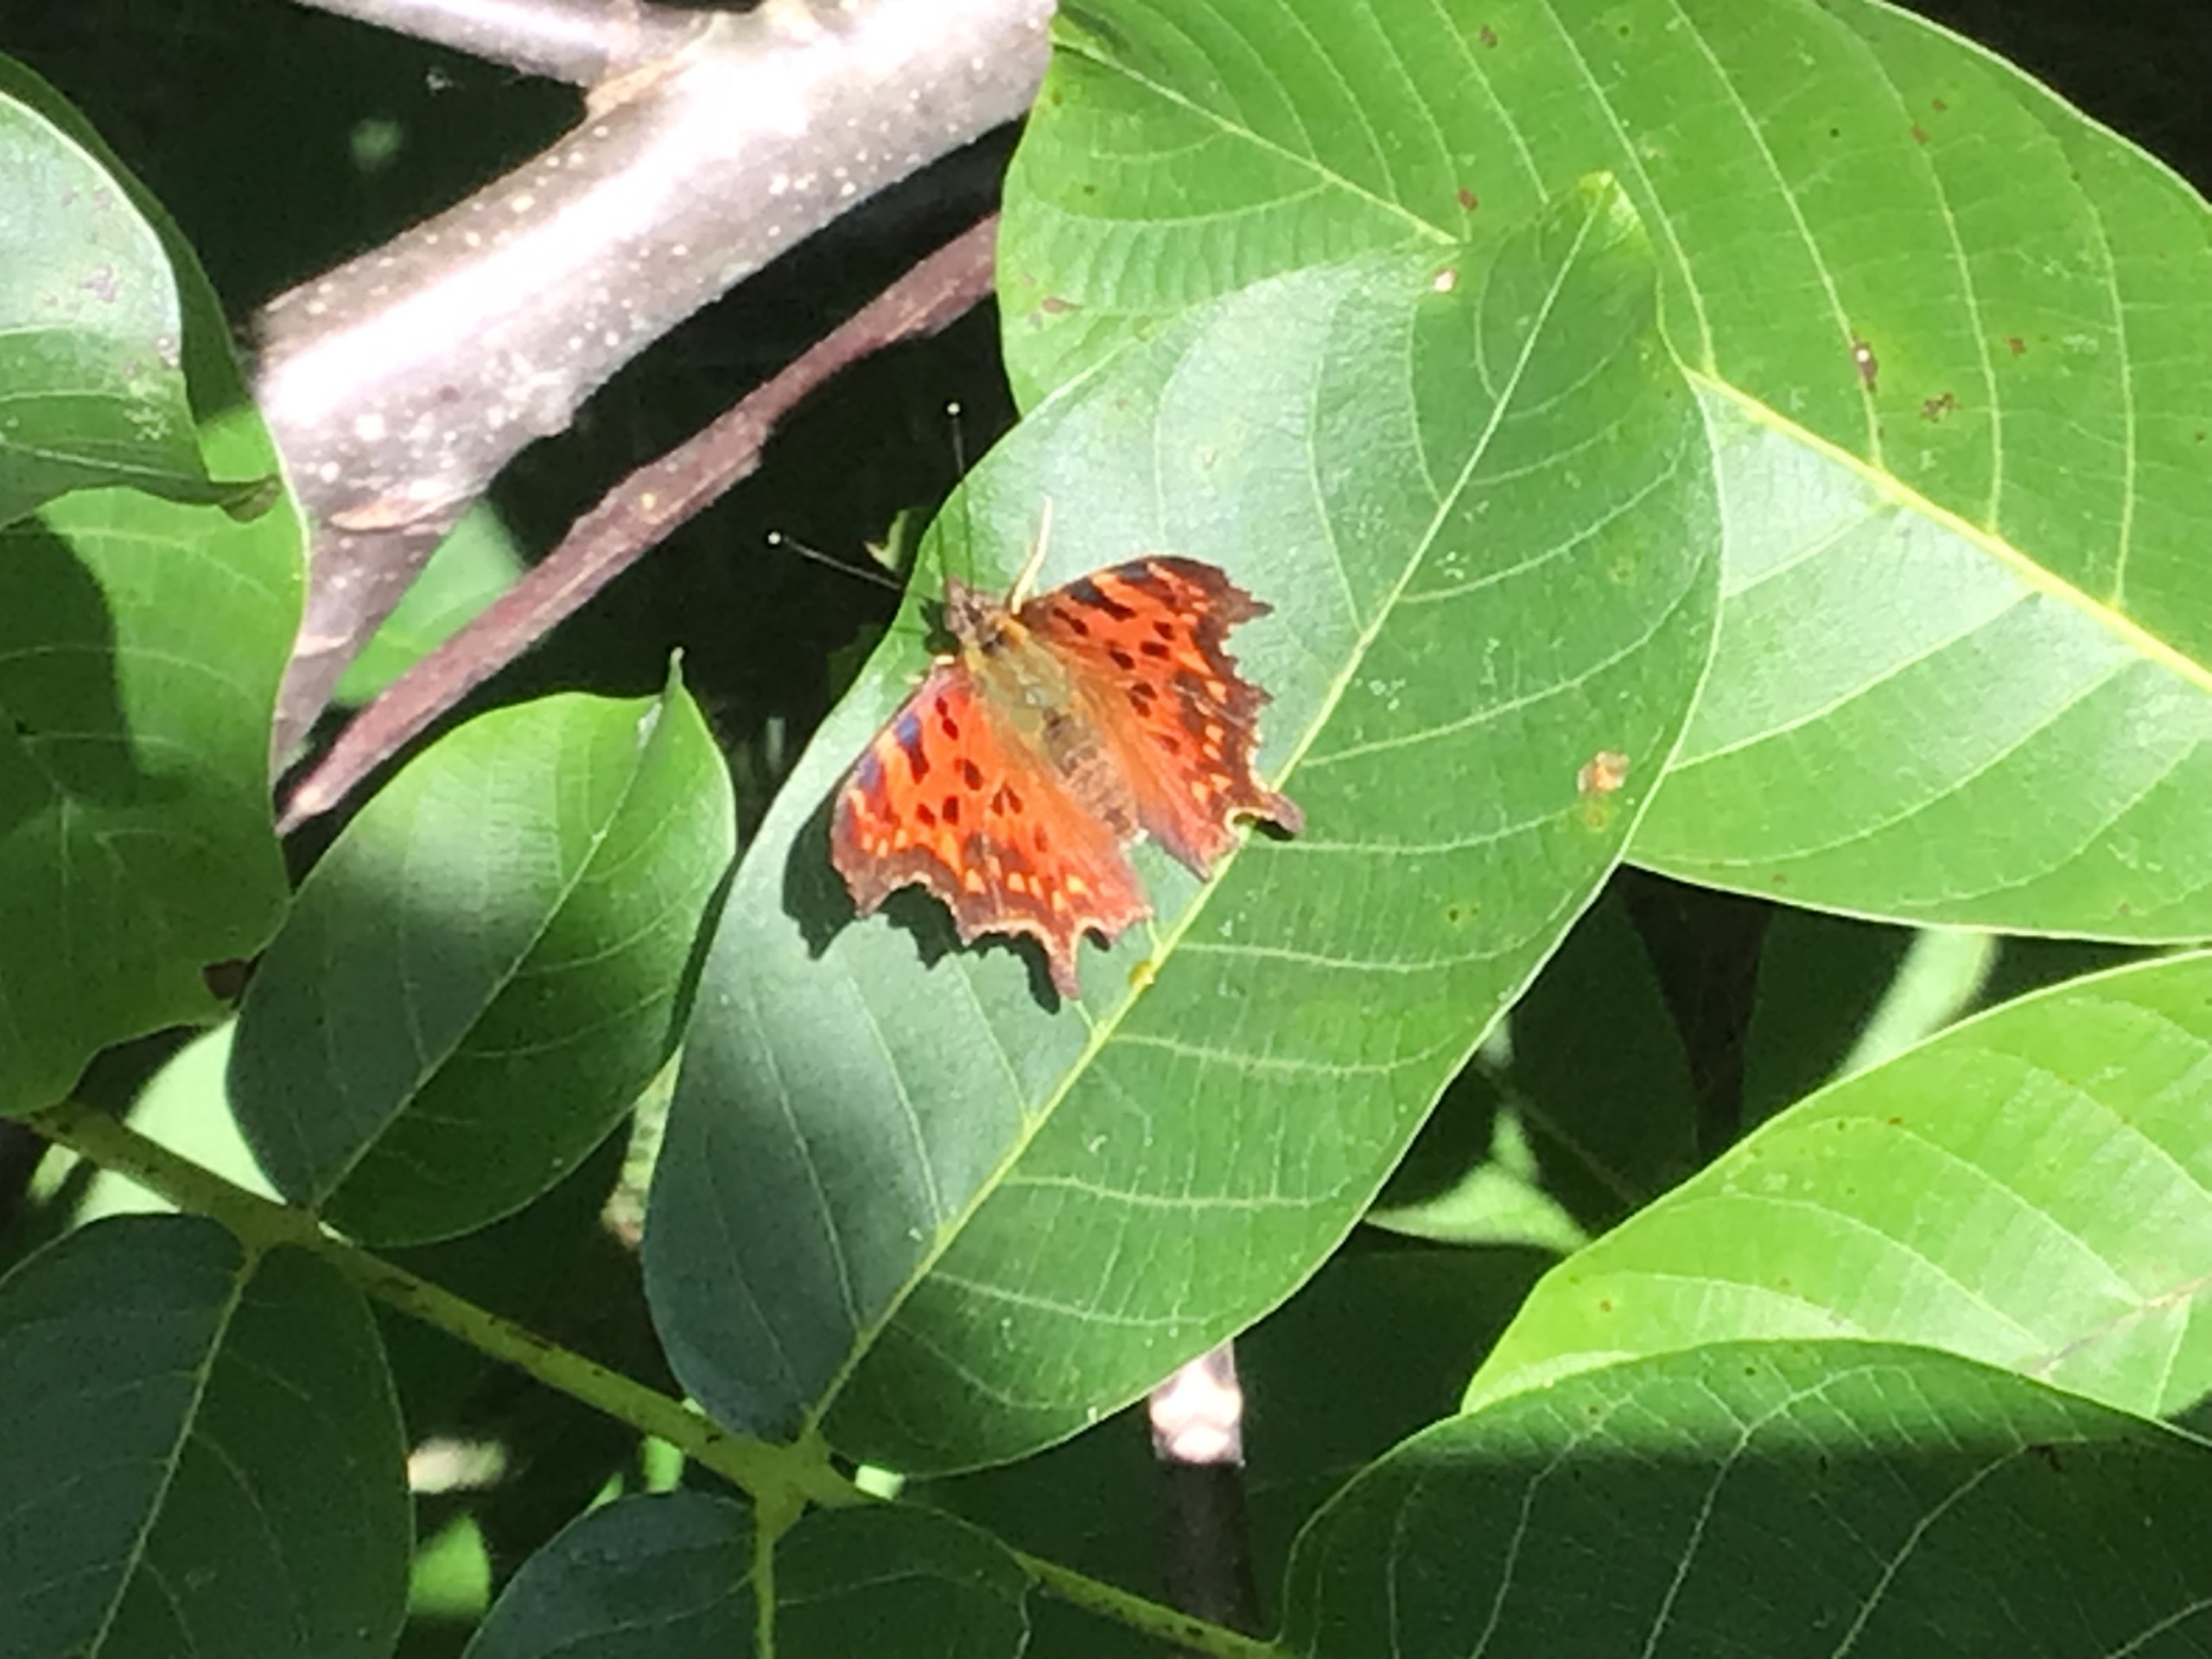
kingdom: Animalia
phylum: Arthropoda
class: Insecta
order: Lepidoptera
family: Nymphalidae
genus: Polygonia
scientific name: Polygonia c-album
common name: Det hvide C
